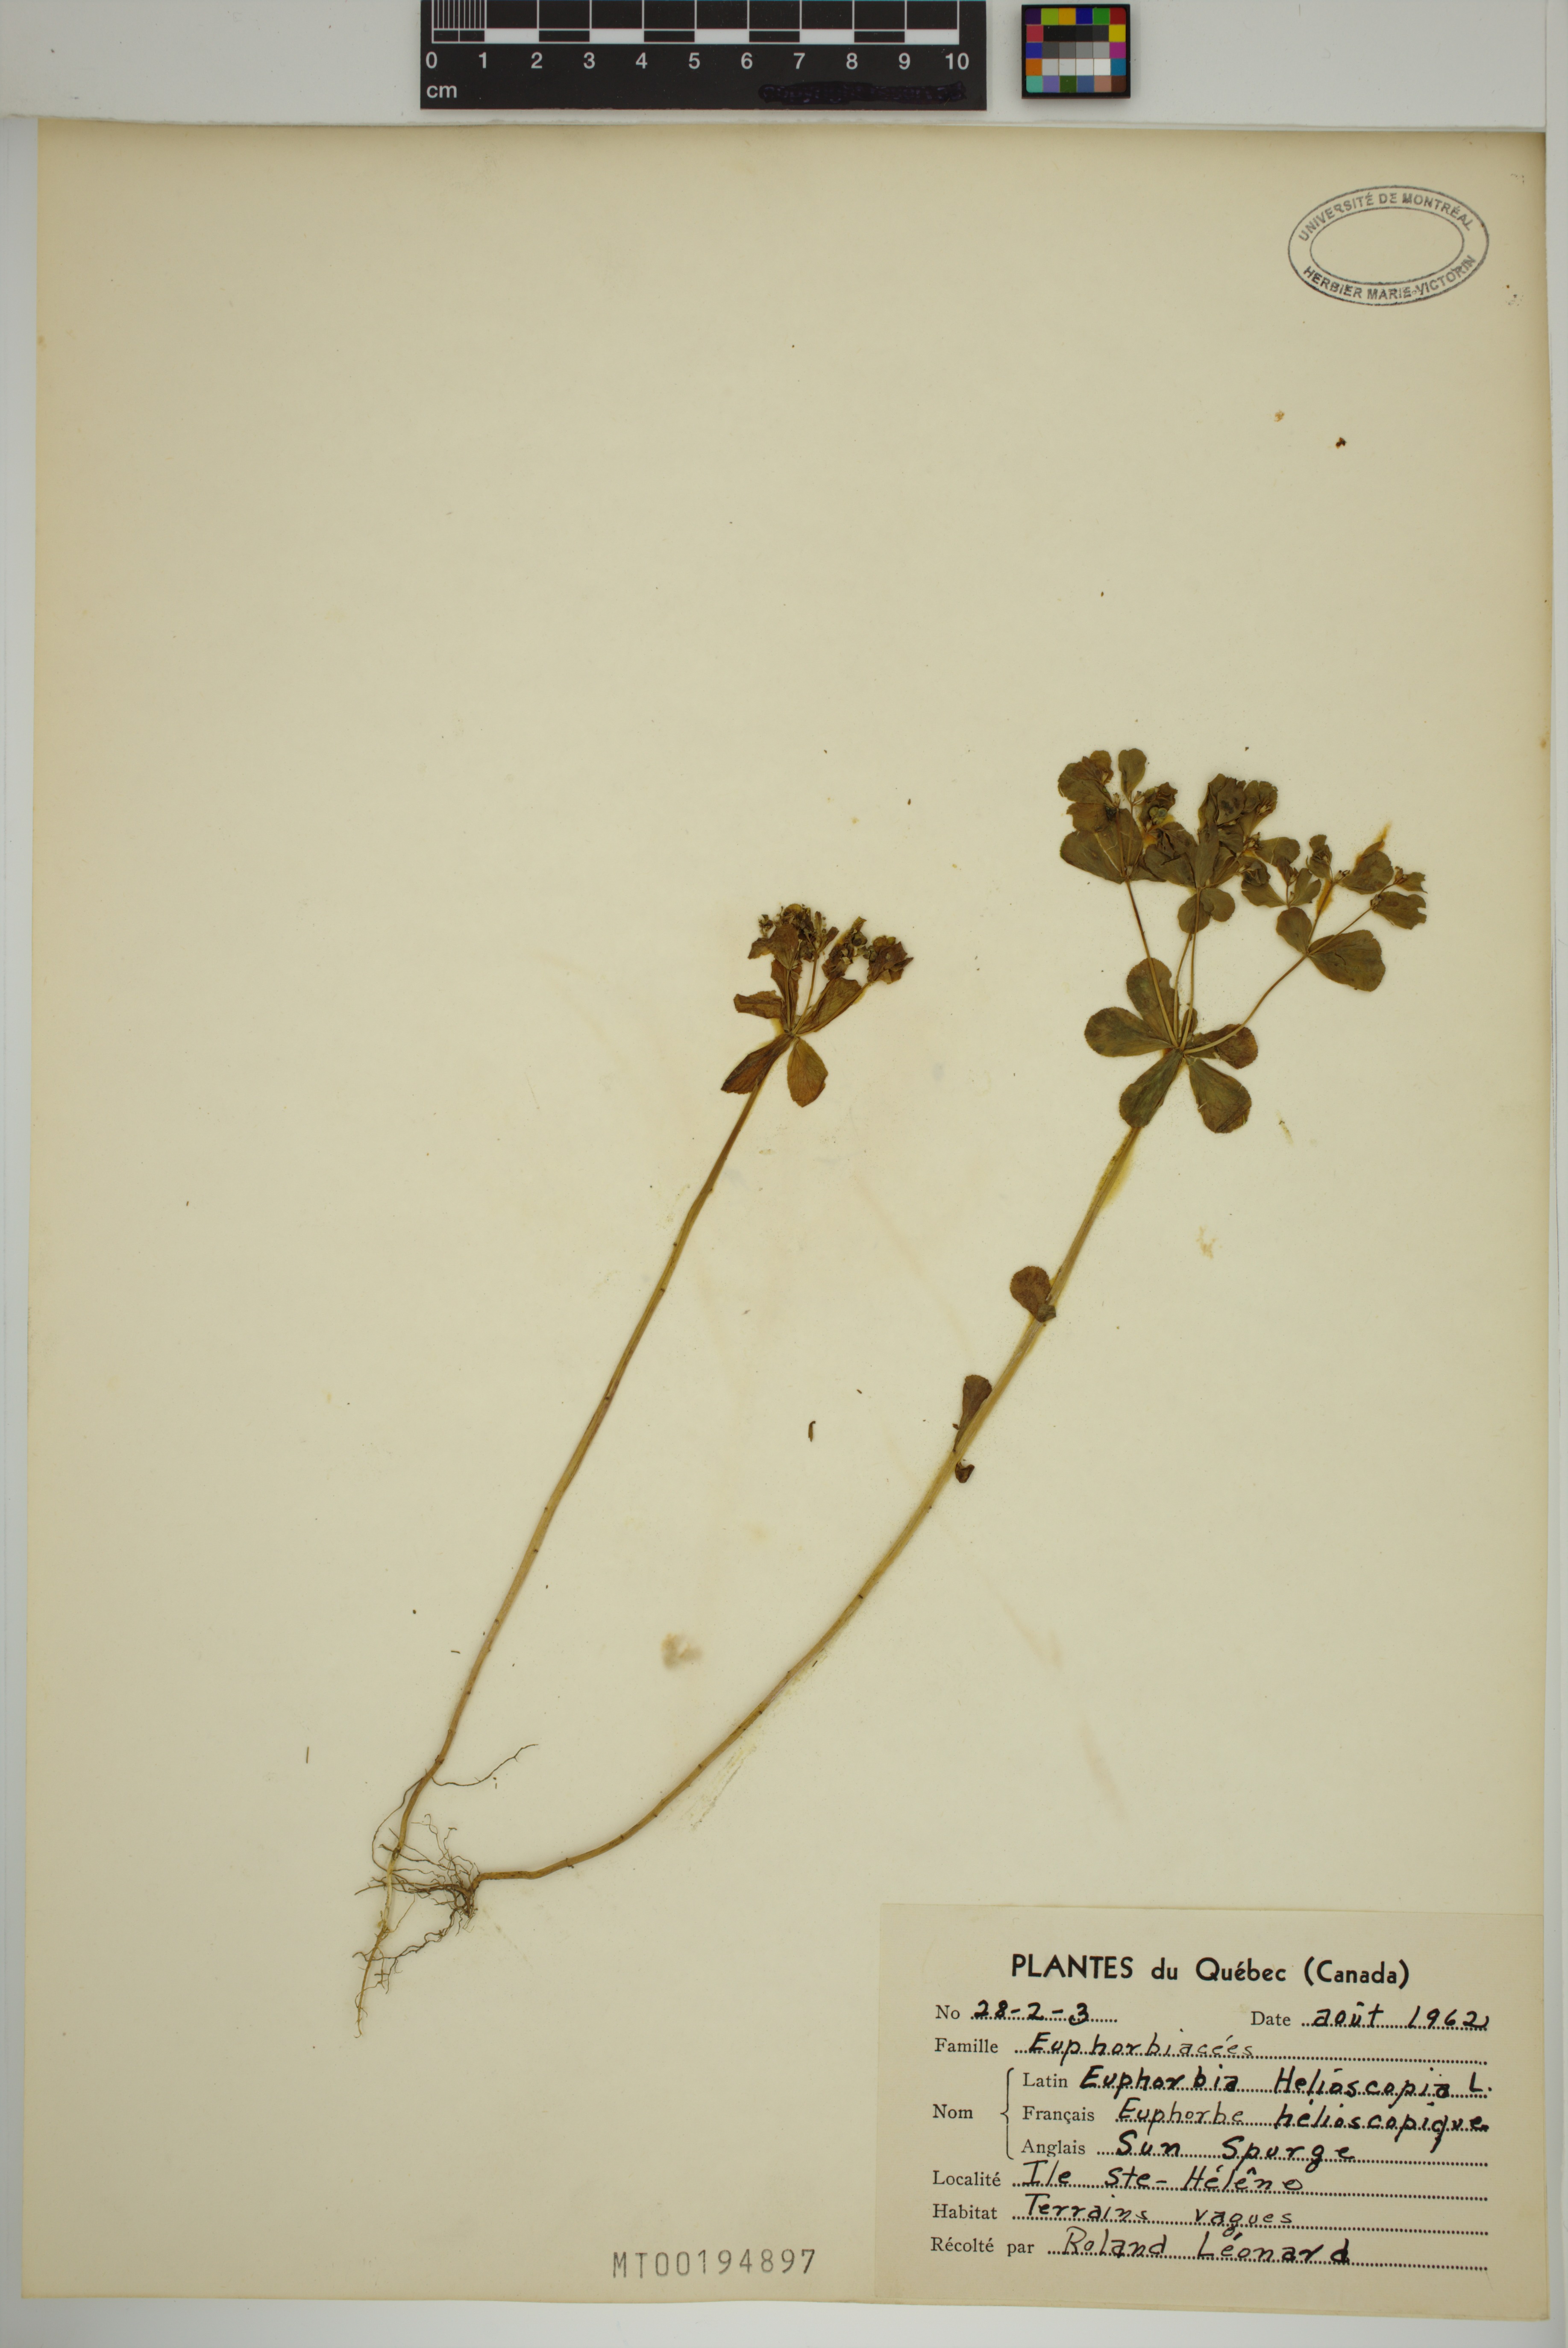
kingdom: Plantae
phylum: Tracheophyta
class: Magnoliopsida
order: Malpighiales
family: Euphorbiaceae
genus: Euphorbia
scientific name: Euphorbia helioscopia
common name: Sun spurge
